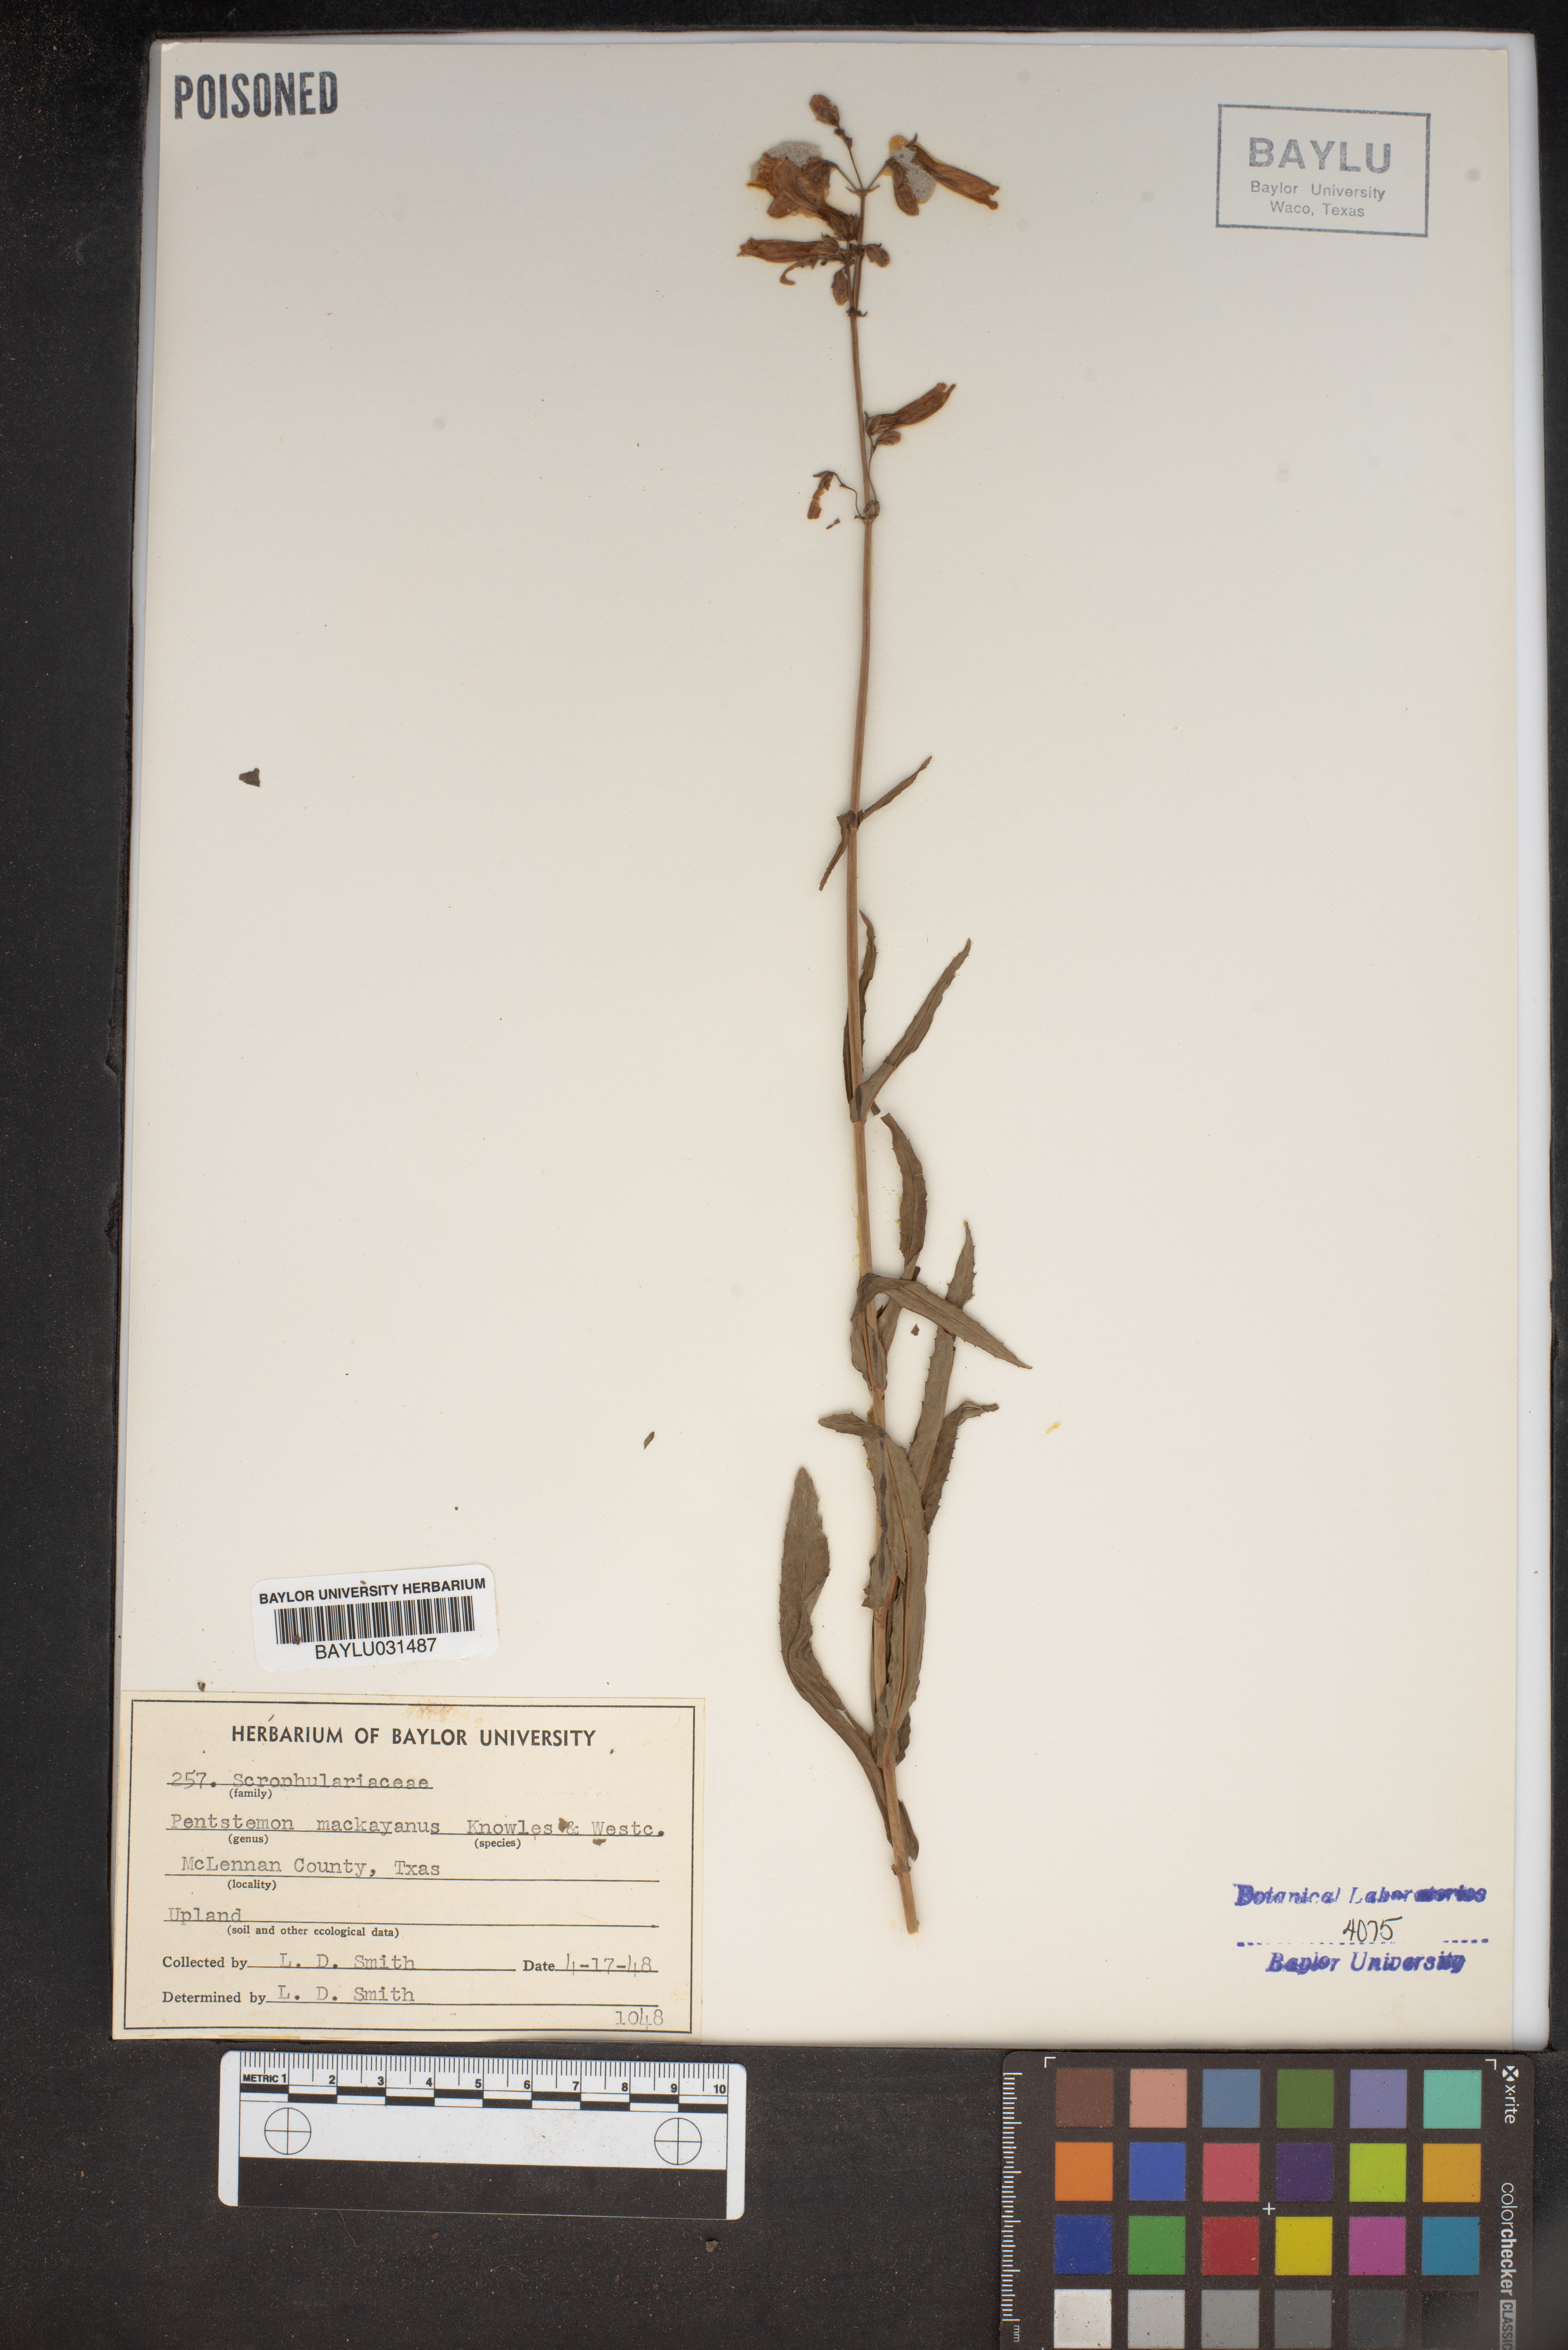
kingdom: Plantae
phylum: Tracheophyta
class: Magnoliopsida
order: Lamiales
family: Plantaginaceae
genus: Penstemon
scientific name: Penstemon hirsutus
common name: Hairy beardtongue
